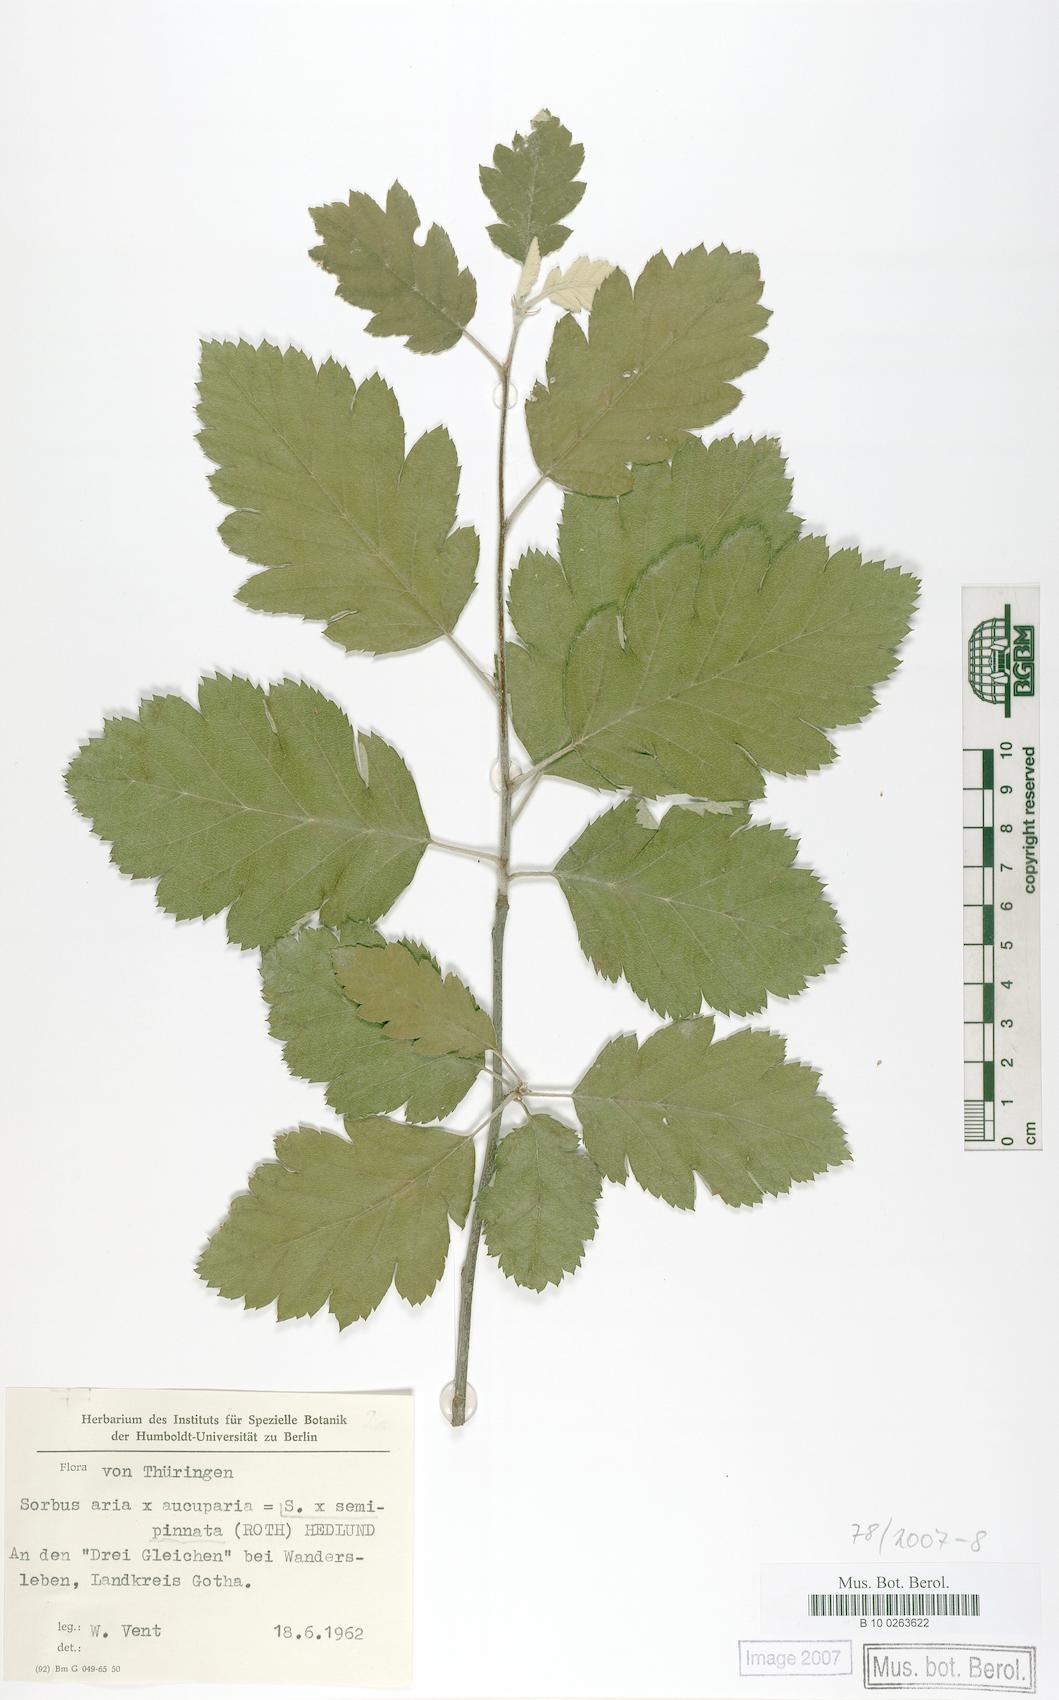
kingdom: Plantae
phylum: Tracheophyta
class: Magnoliopsida
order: Rosales
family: Rosaceae
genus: Hedlundia
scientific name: Hedlundia
